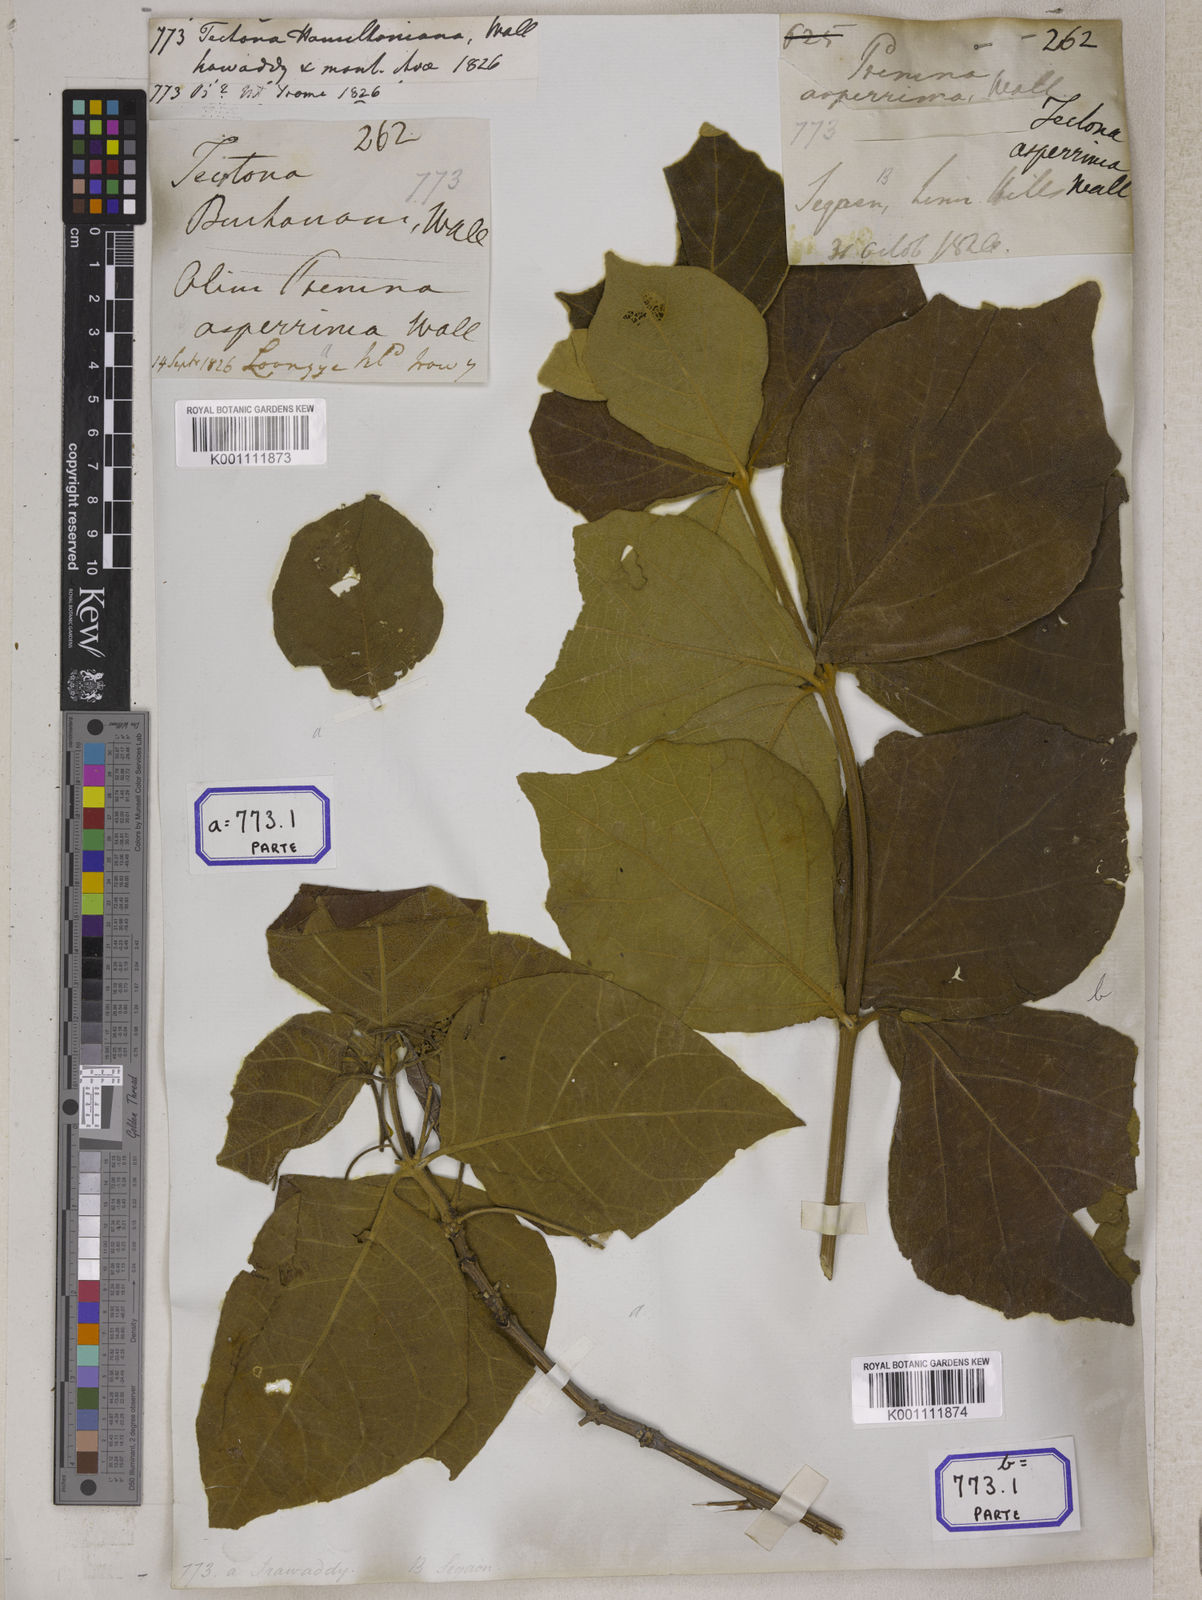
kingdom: Plantae
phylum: Tracheophyta
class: Magnoliopsida
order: Lamiales
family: Lamiaceae
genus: Tectona
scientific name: Tectona hamiltoniana
